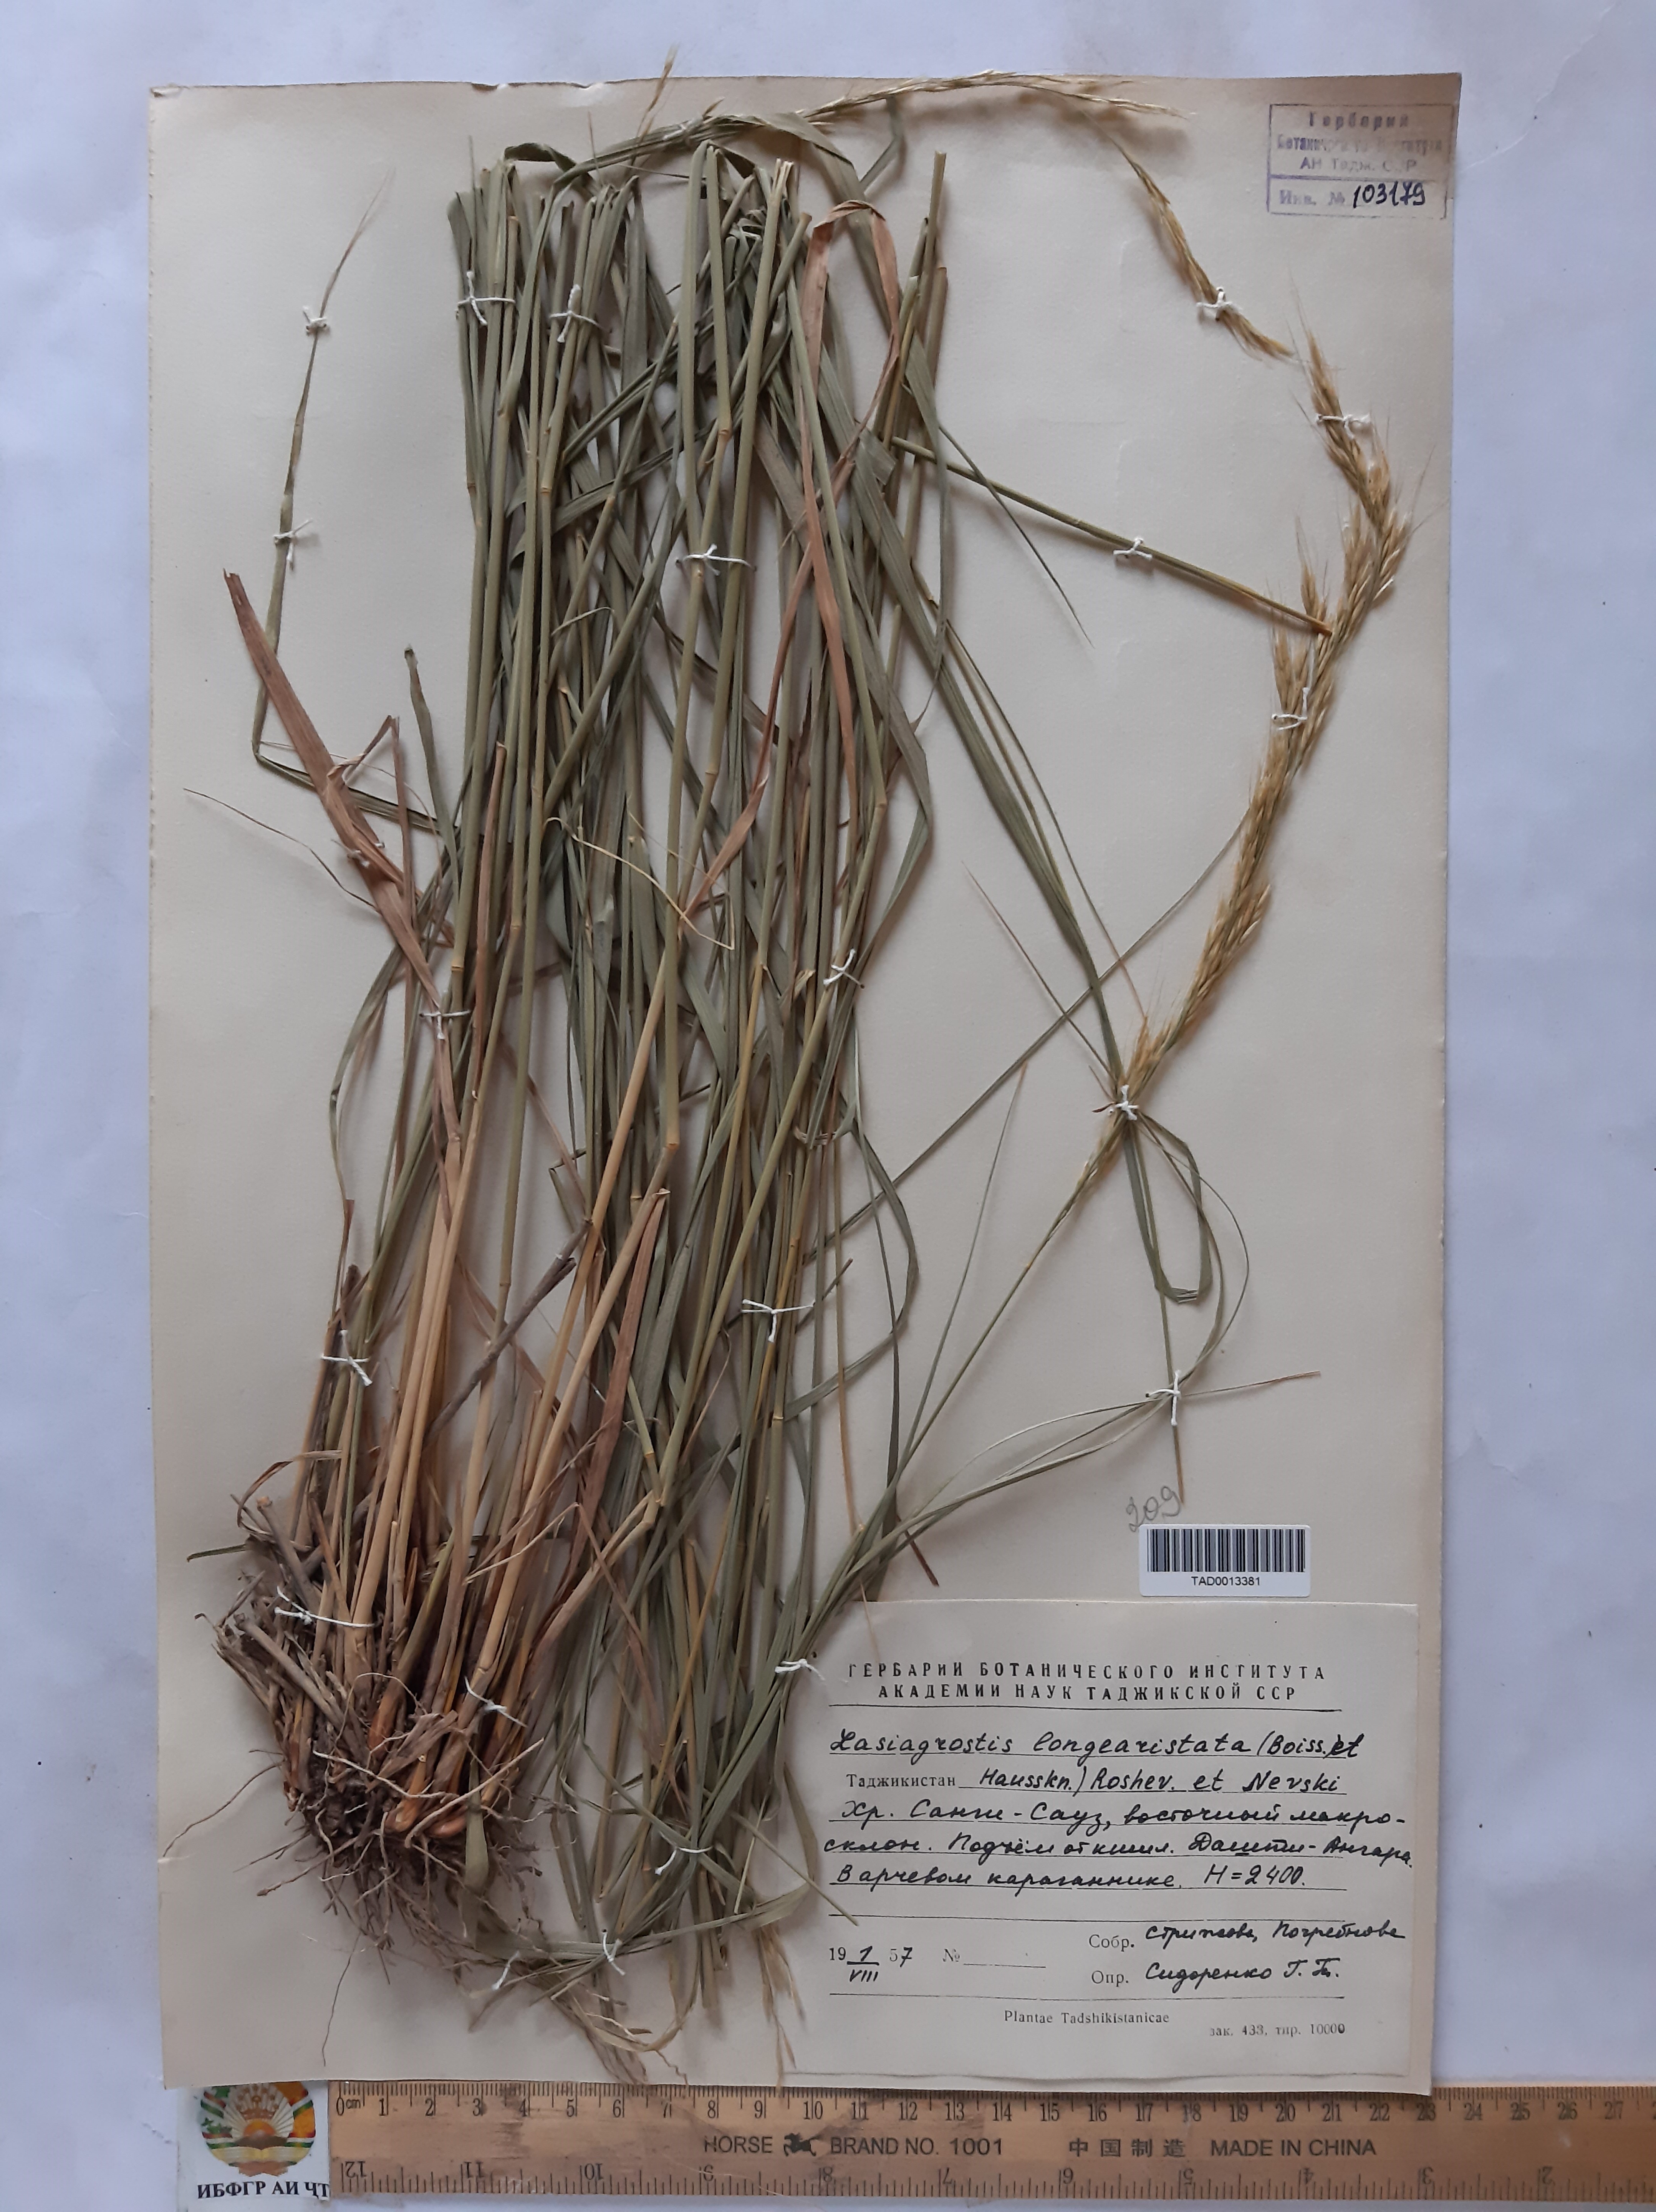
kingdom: Plantae
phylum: Tracheophyta
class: Liliopsida
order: Poales
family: Poaceae
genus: Achnatherum
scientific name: Achnatherum turcomanicum
